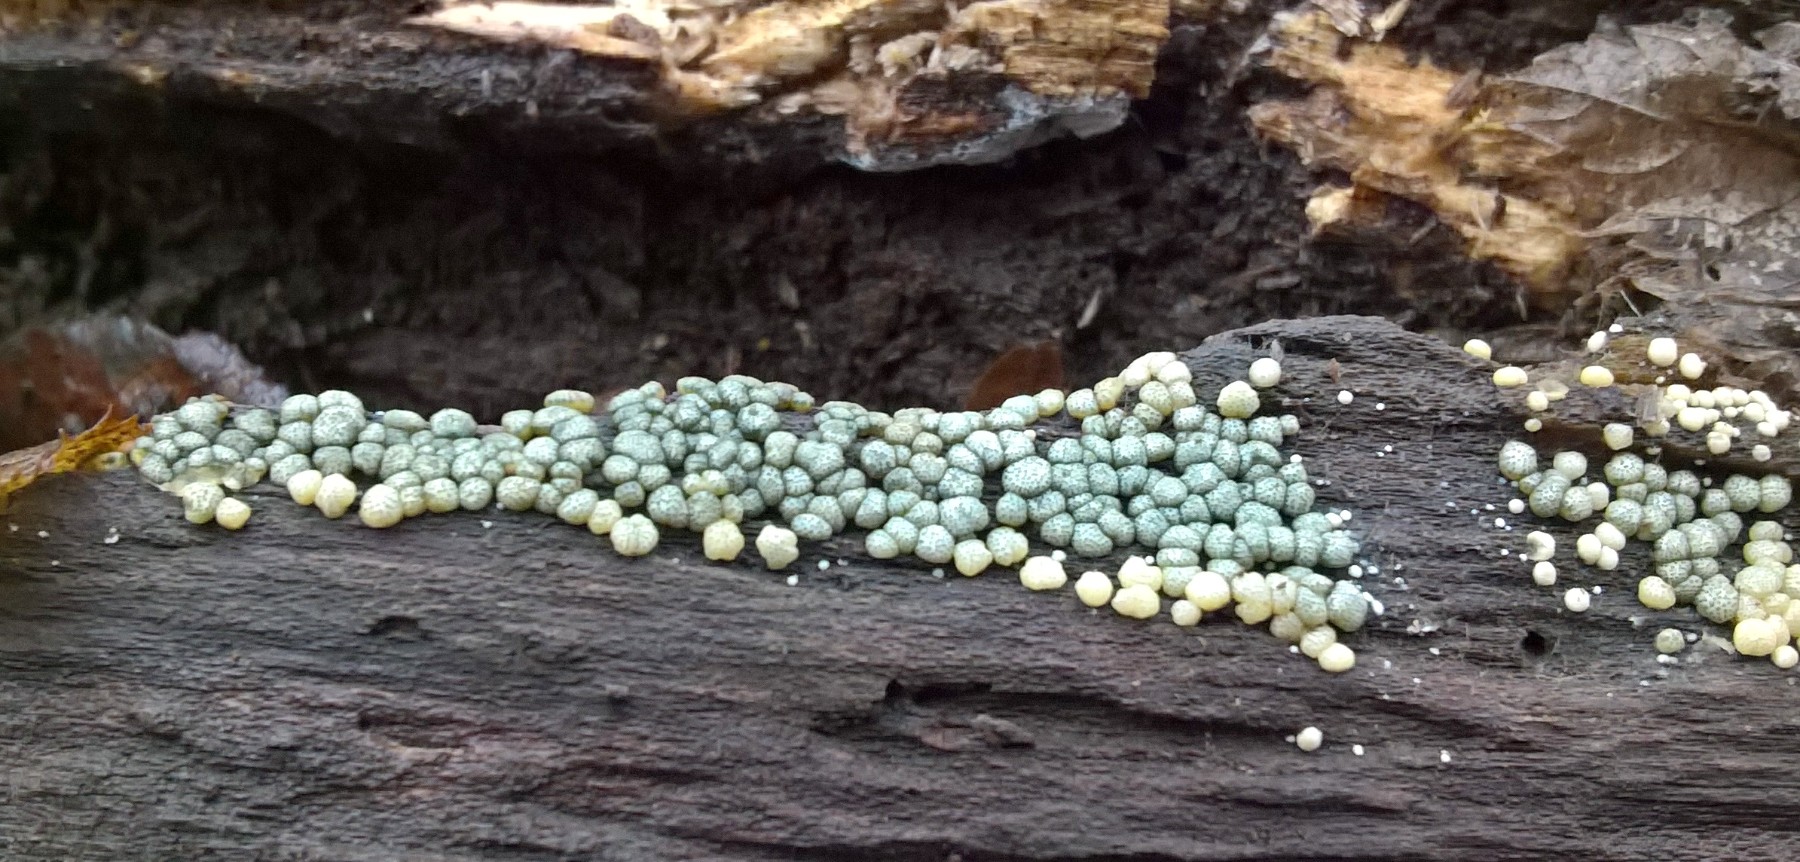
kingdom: Fungi
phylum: Ascomycota
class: Sordariomycetes
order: Hypocreales
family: Hypocreaceae
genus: Trichoderma
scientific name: Trichoderma strictipile
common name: grønprikket kødkerne
